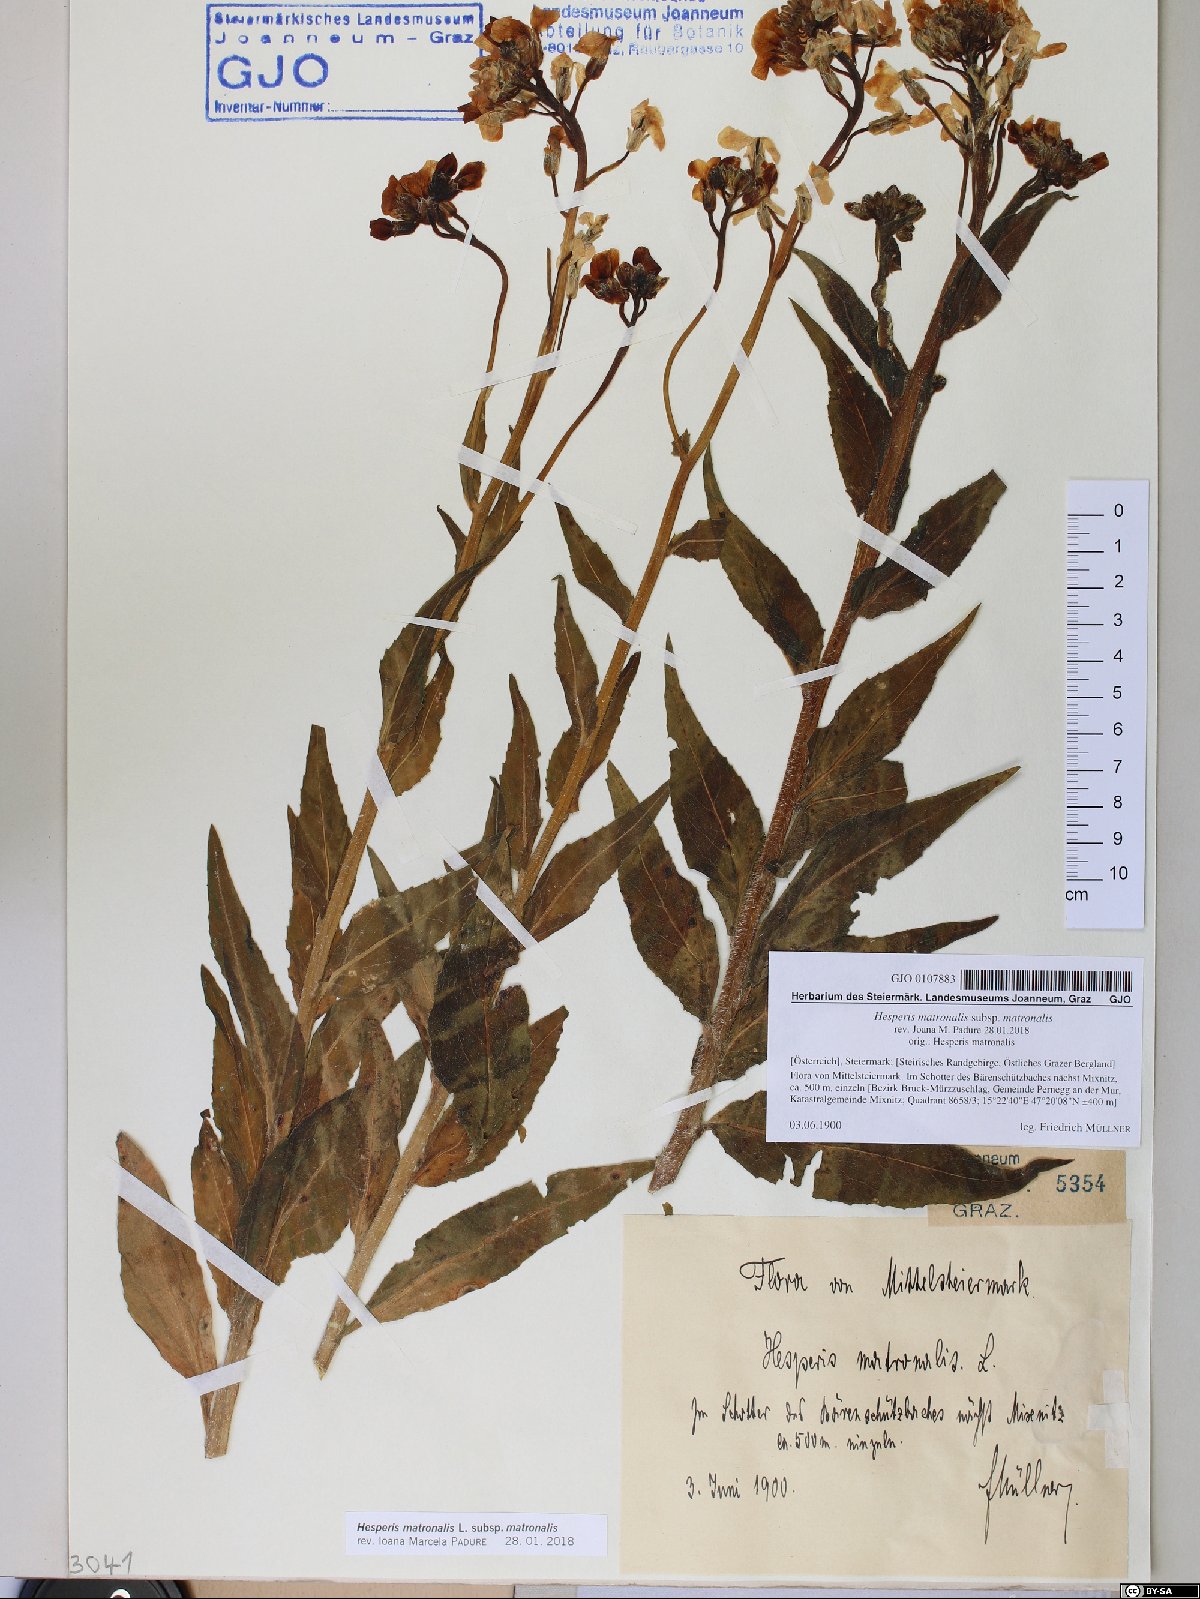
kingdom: Plantae
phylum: Tracheophyta
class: Magnoliopsida
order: Brassicales
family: Brassicaceae
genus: Hesperis
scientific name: Hesperis matronalis
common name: Dame's-violet
